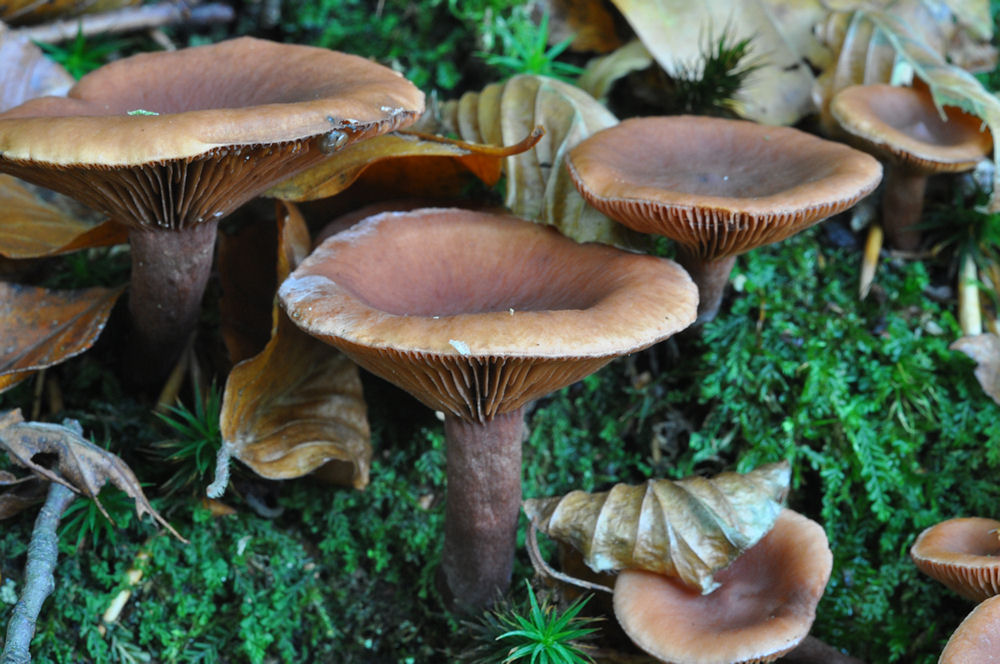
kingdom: Fungi
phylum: Basidiomycota
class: Agaricomycetes
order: Russulales
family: Russulaceae
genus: Lactarius
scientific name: Lactarius camphoratus
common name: kamfer-mælkehat
